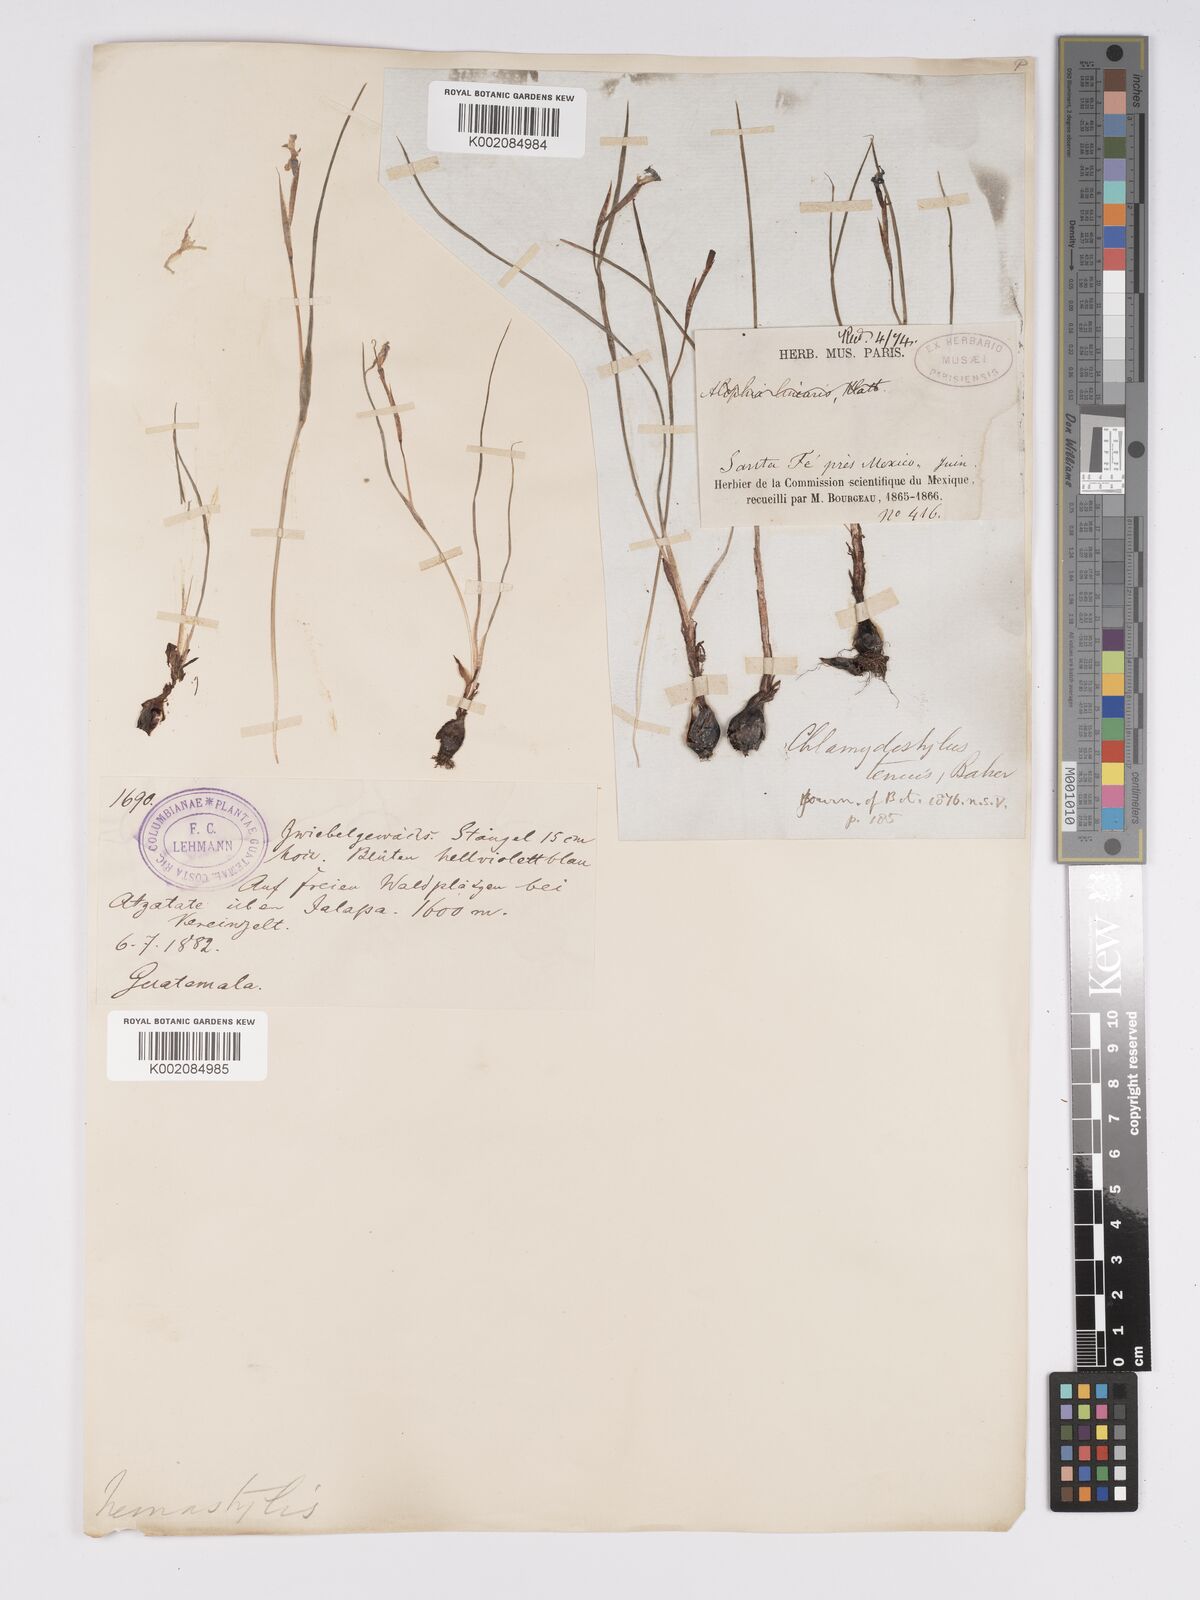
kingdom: Plantae
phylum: Tracheophyta
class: Liliopsida
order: Asparagales
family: Iridaceae
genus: Nemastylis
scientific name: Nemastylis tenuis
